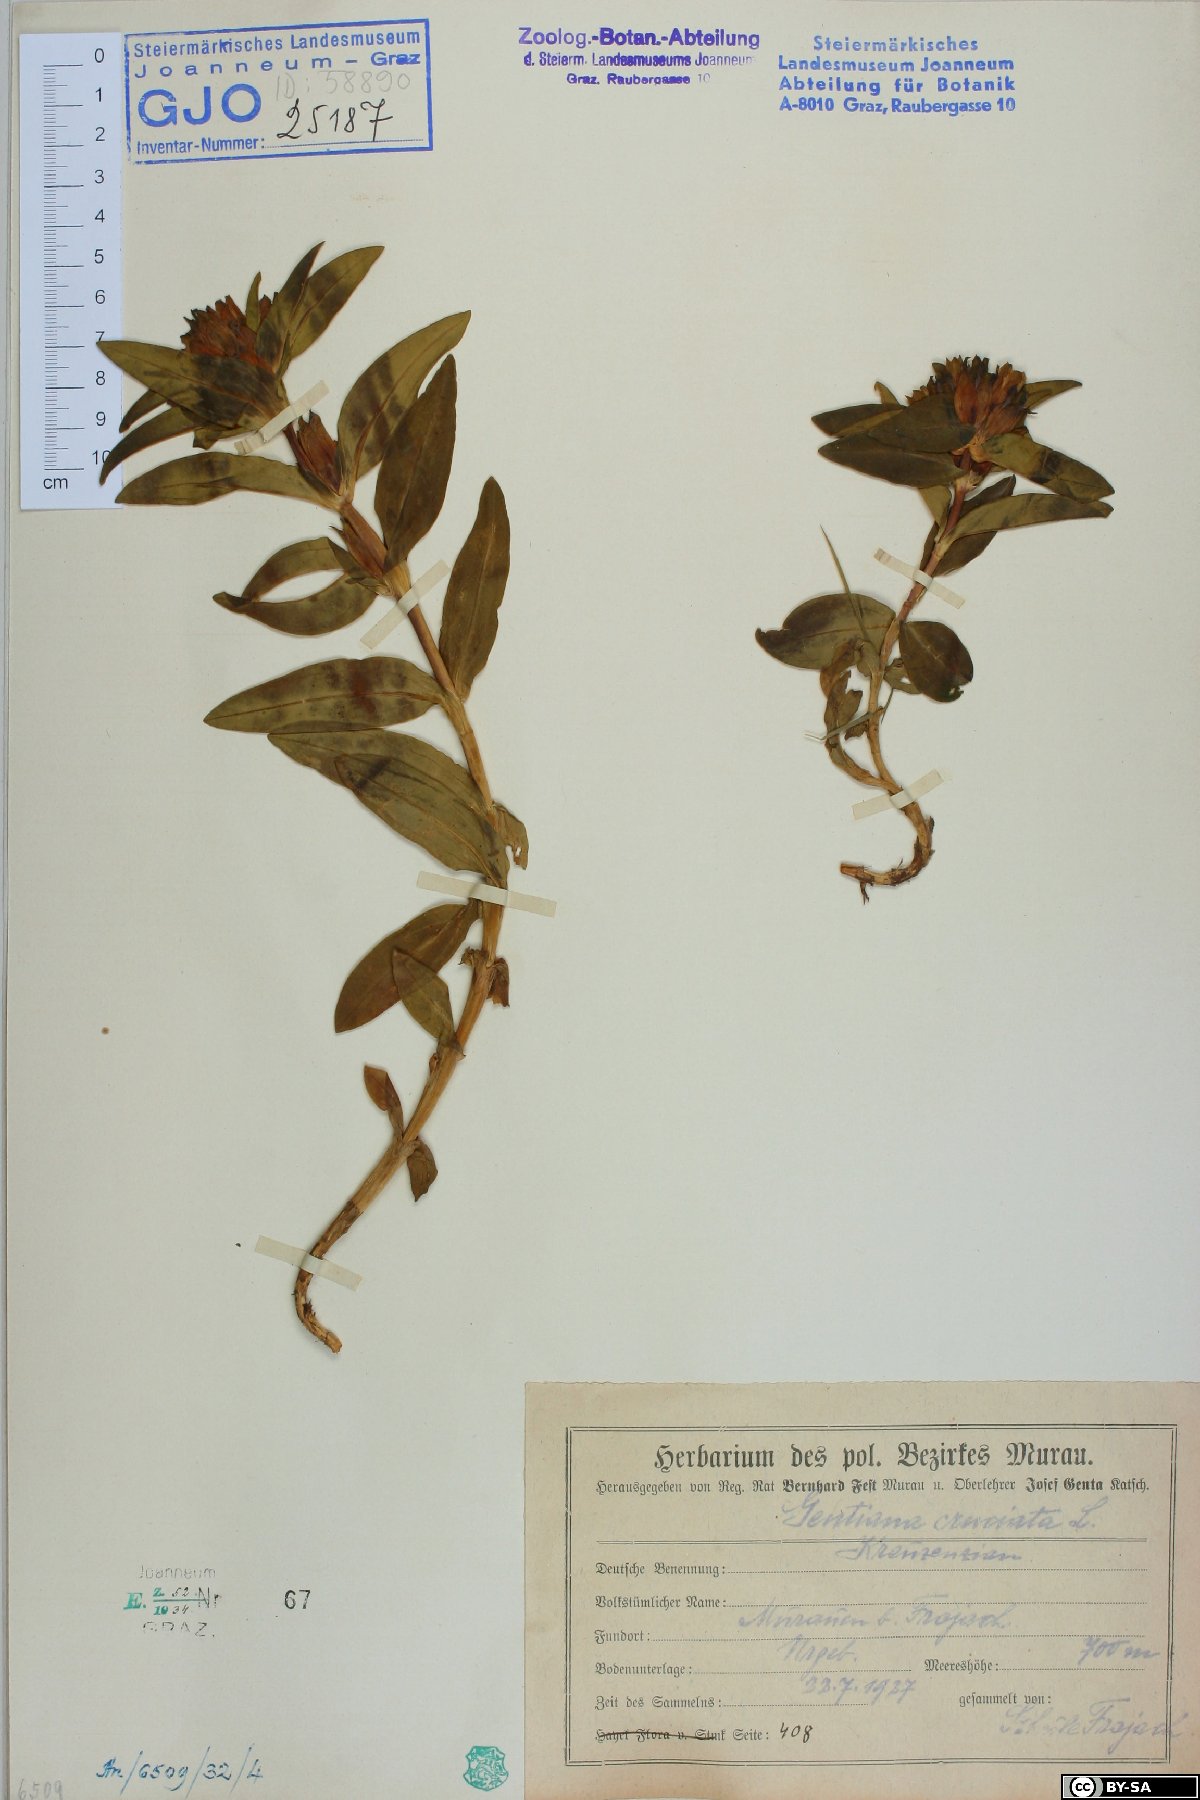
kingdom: Plantae
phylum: Tracheophyta
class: Magnoliopsida
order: Gentianales
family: Gentianaceae
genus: Gentiana
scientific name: Gentiana cruciata
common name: Cross gentian
